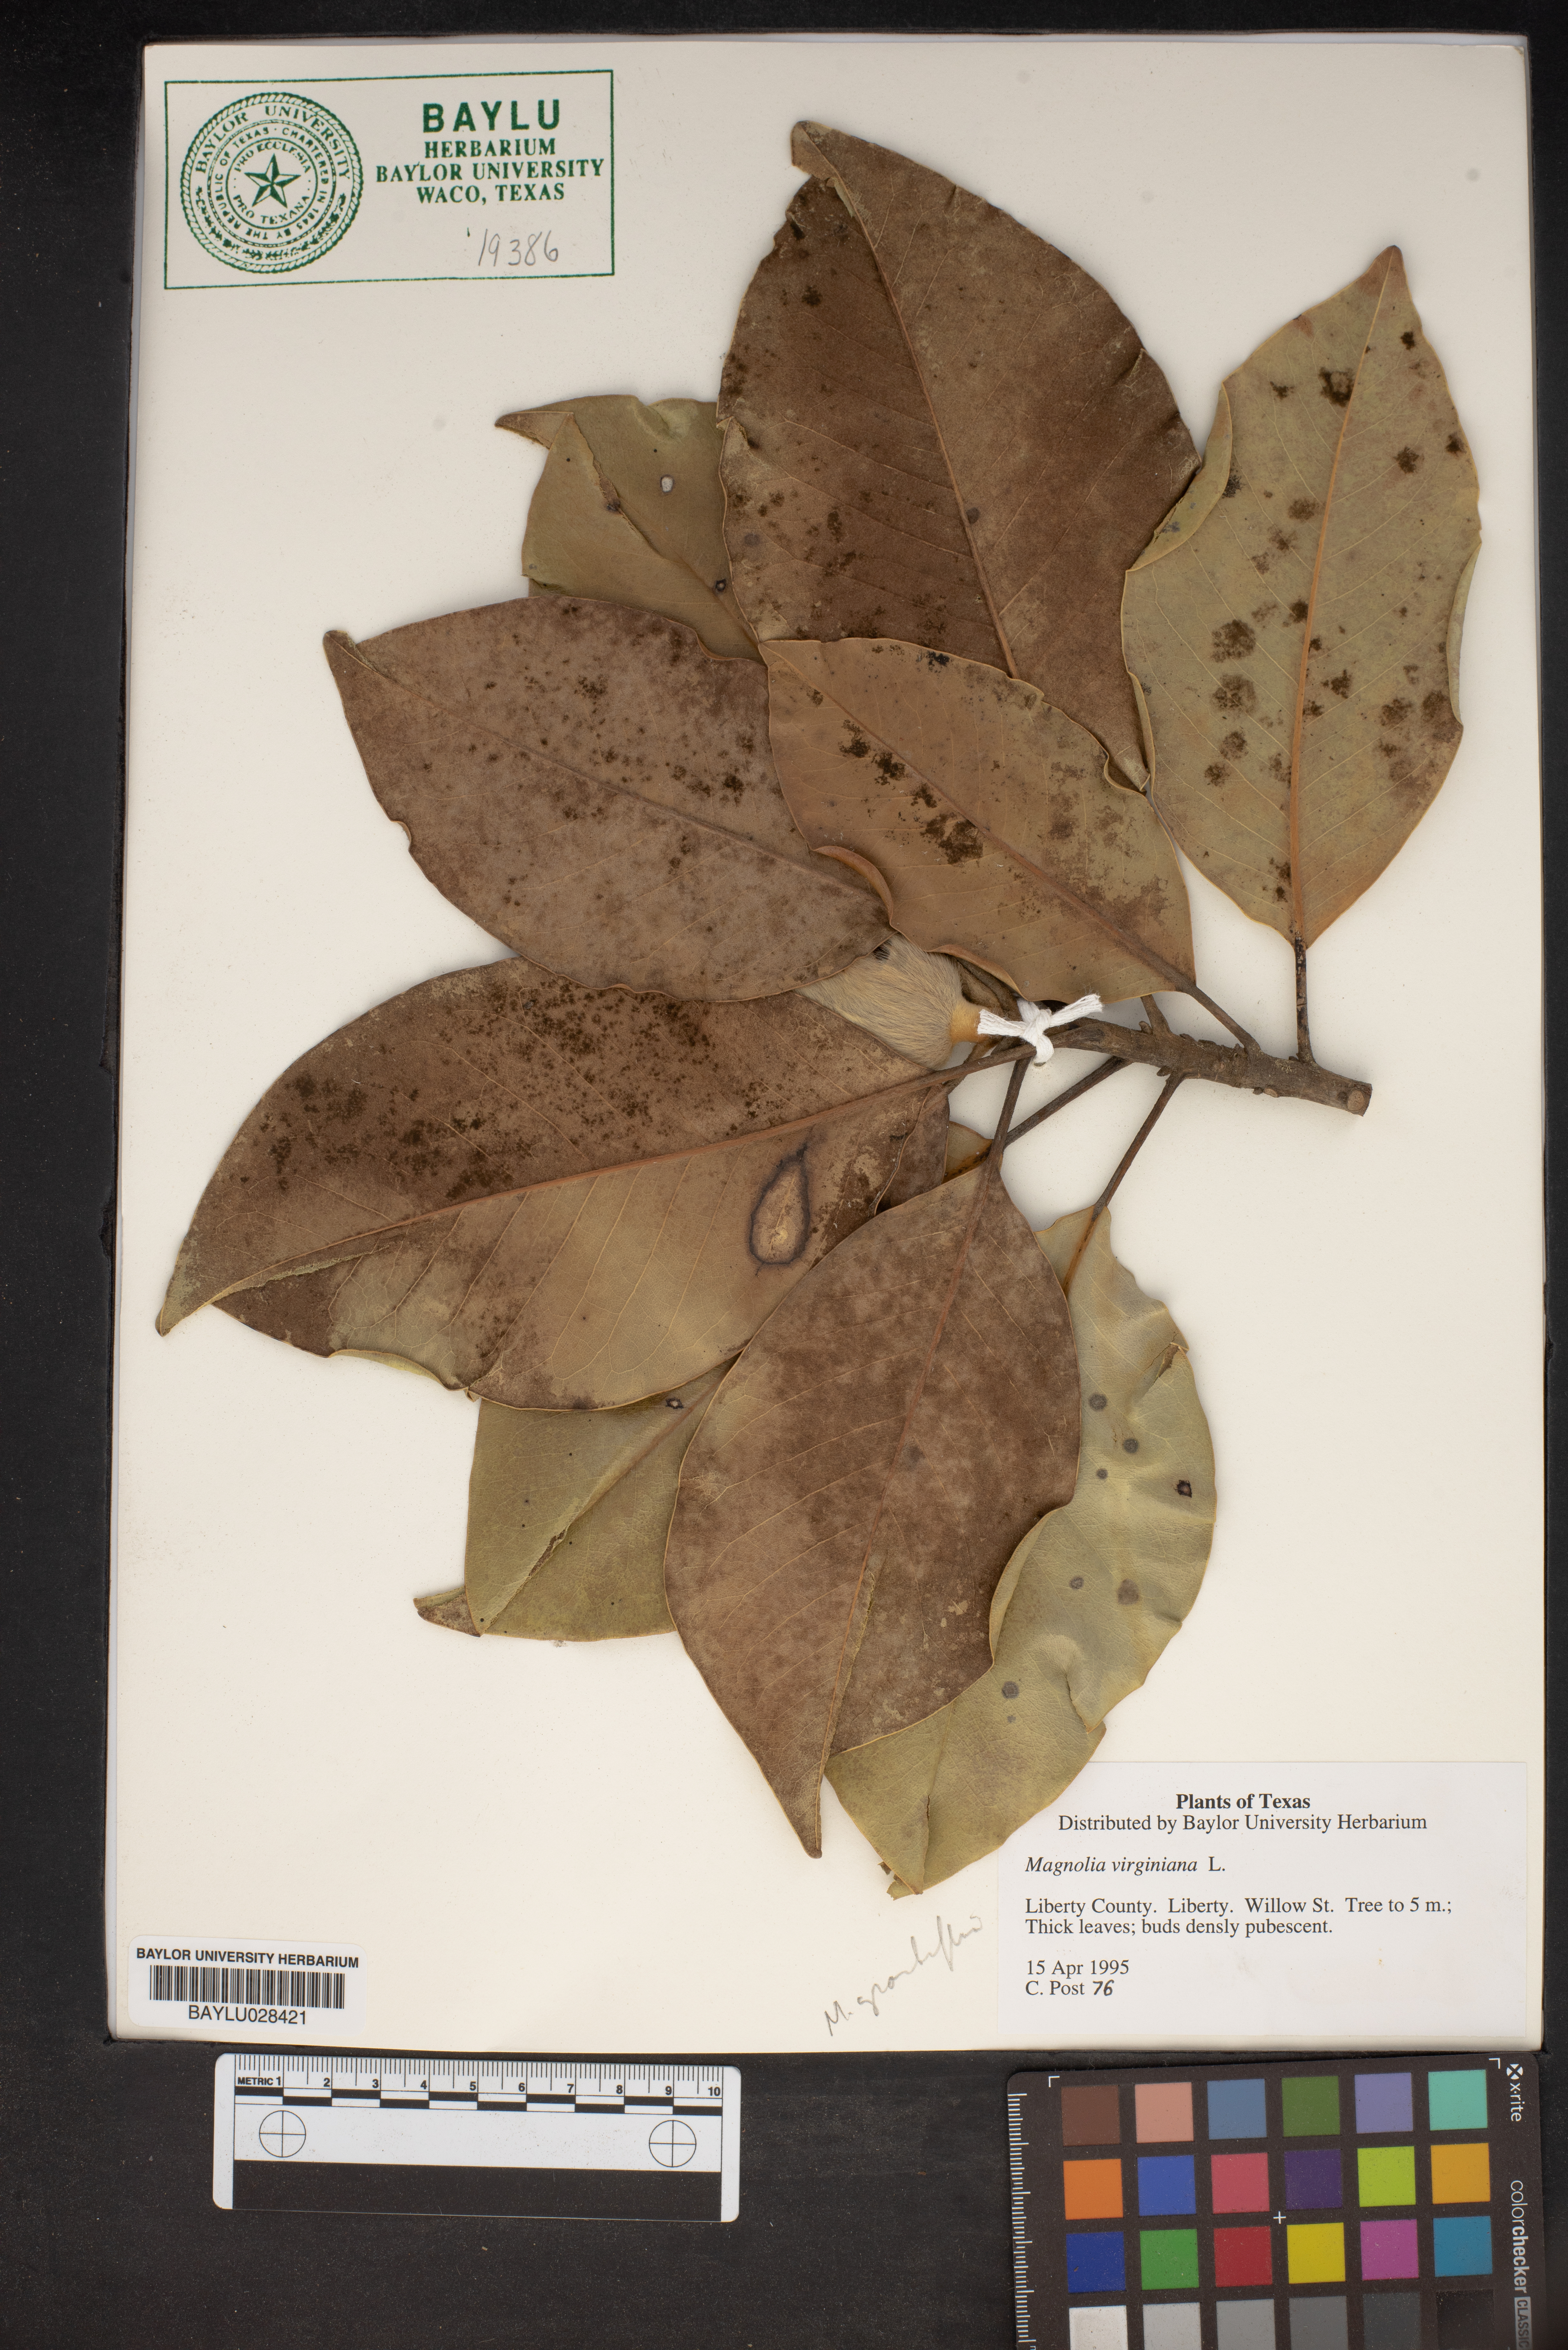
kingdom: Plantae
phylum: Tracheophyta
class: Magnoliopsida
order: Magnoliales
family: Magnoliaceae
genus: Magnolia
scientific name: Magnolia virginiana
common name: Swamp bay
